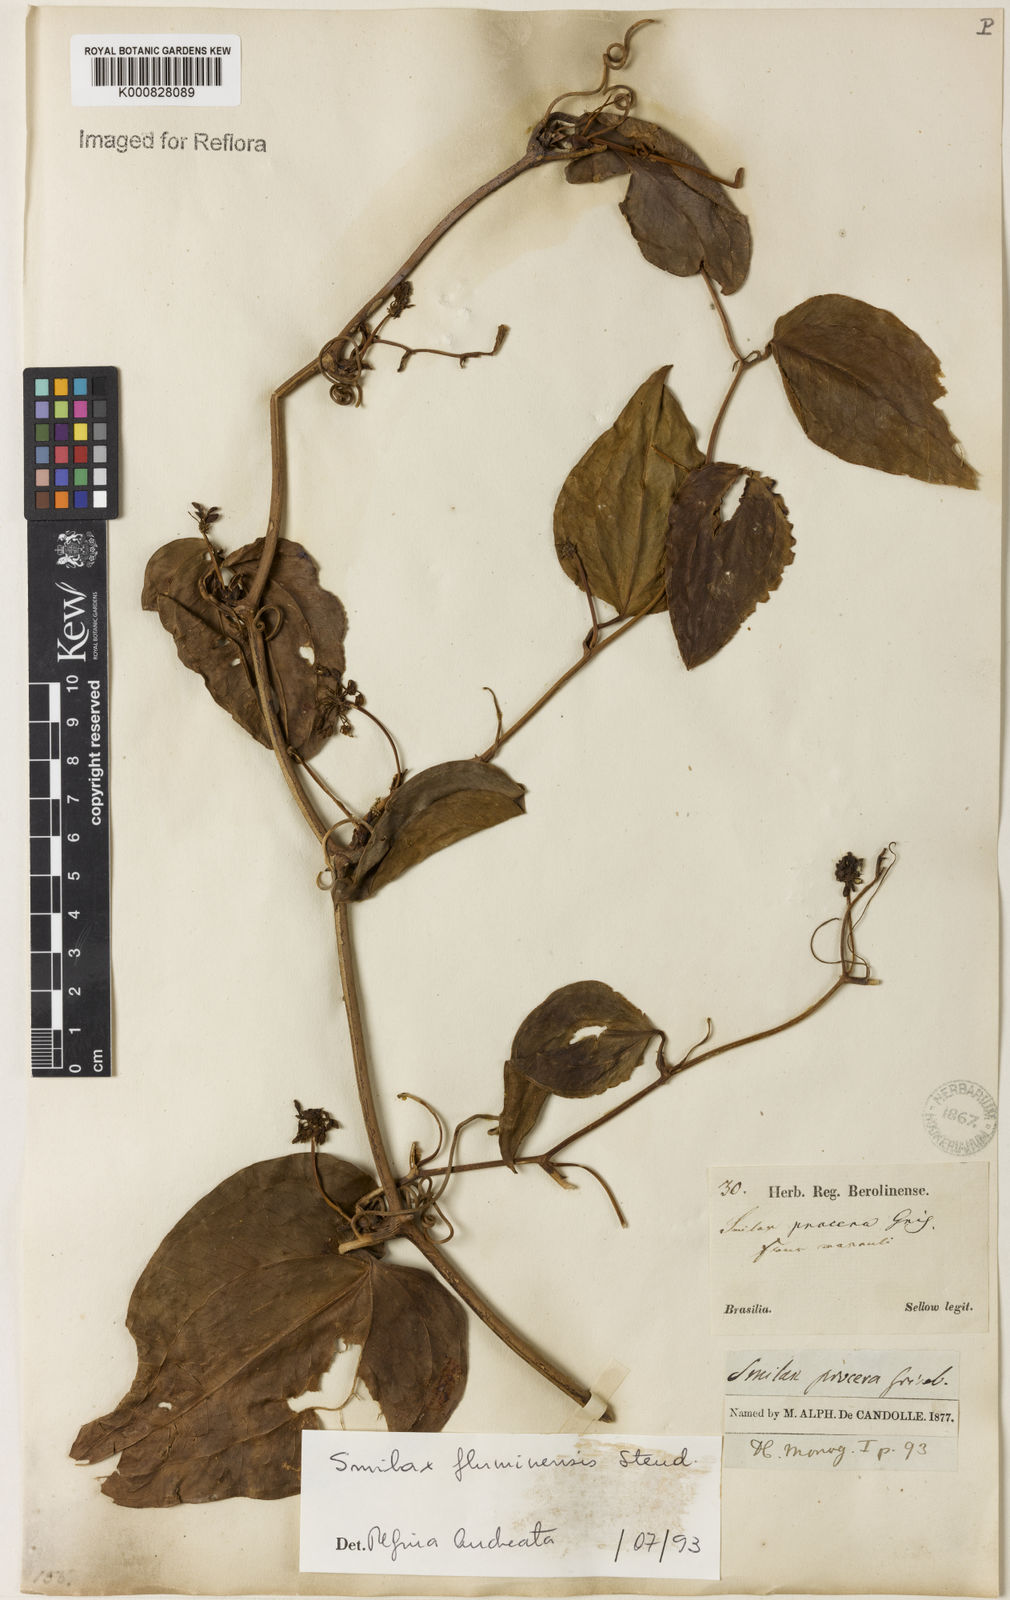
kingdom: Plantae
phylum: Tracheophyta
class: Liliopsida
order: Liliales
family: Smilacaceae
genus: Smilax
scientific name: Smilax fluminensis
